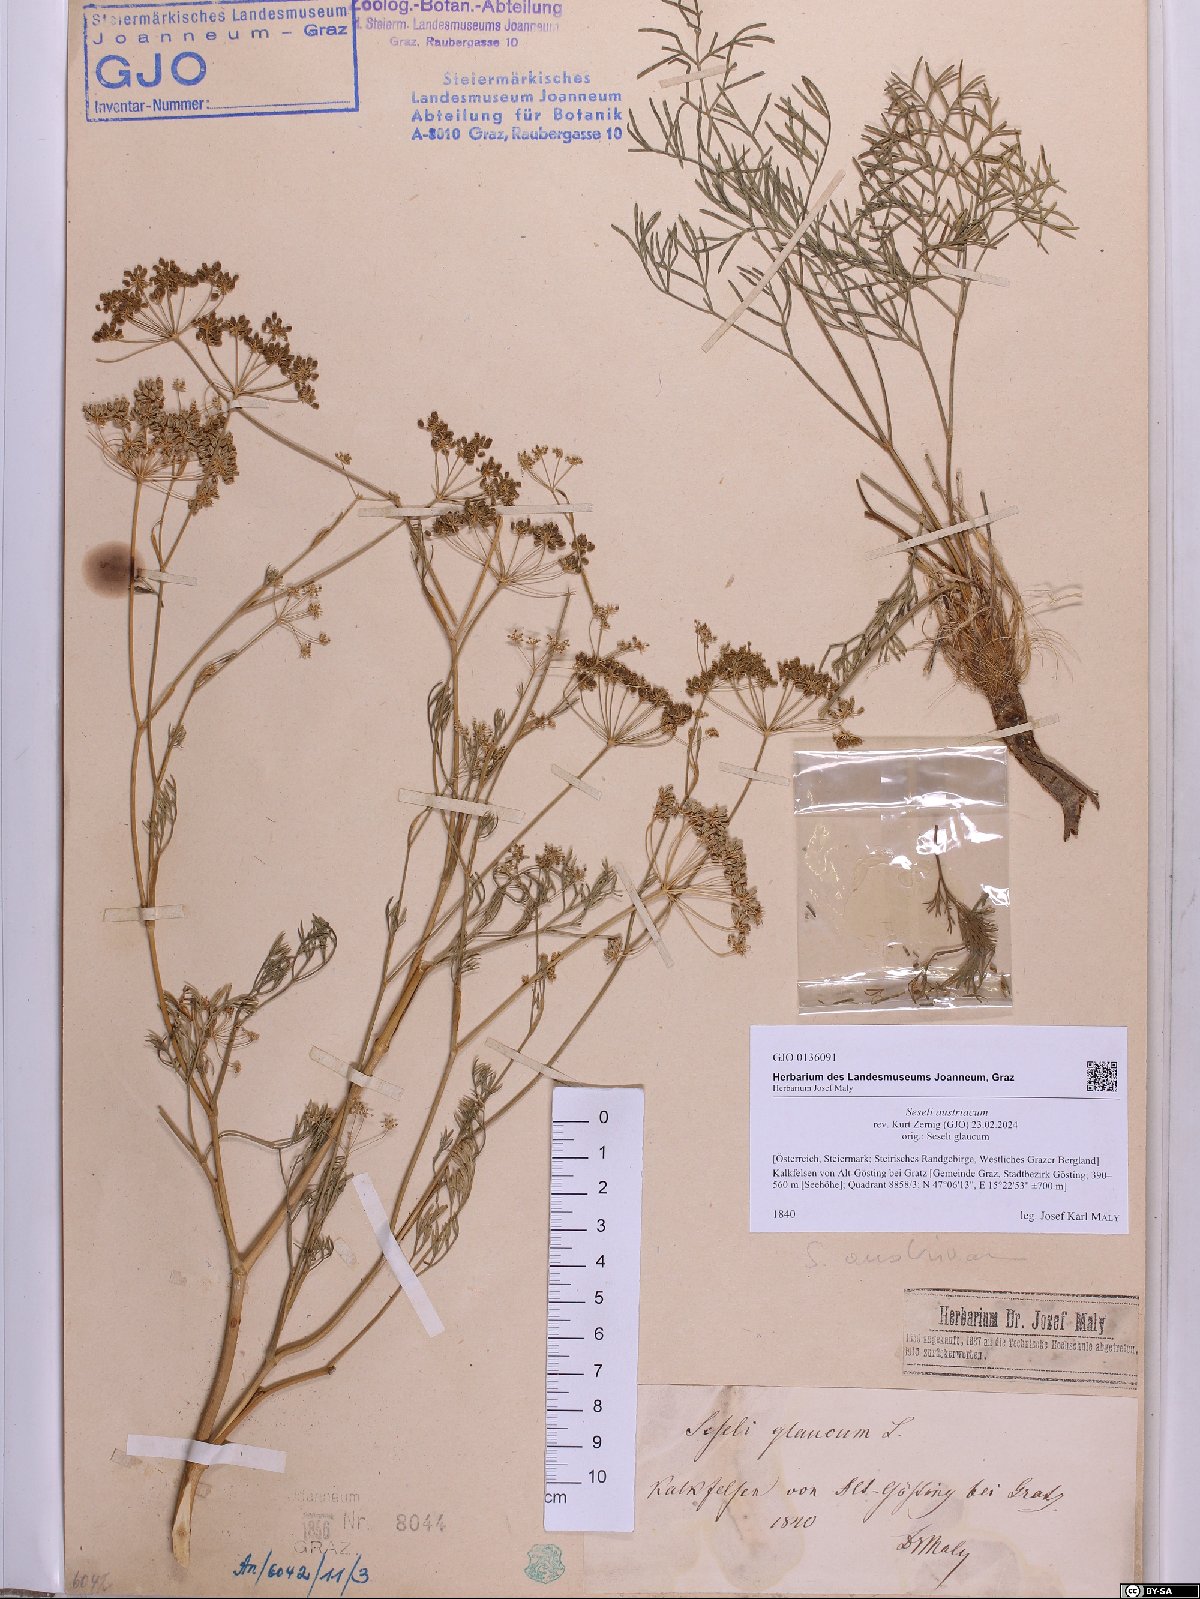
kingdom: Plantae
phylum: Tracheophyta
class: Magnoliopsida
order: Apiales
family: Apiaceae
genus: Seseli
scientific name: Seseli austriacum
